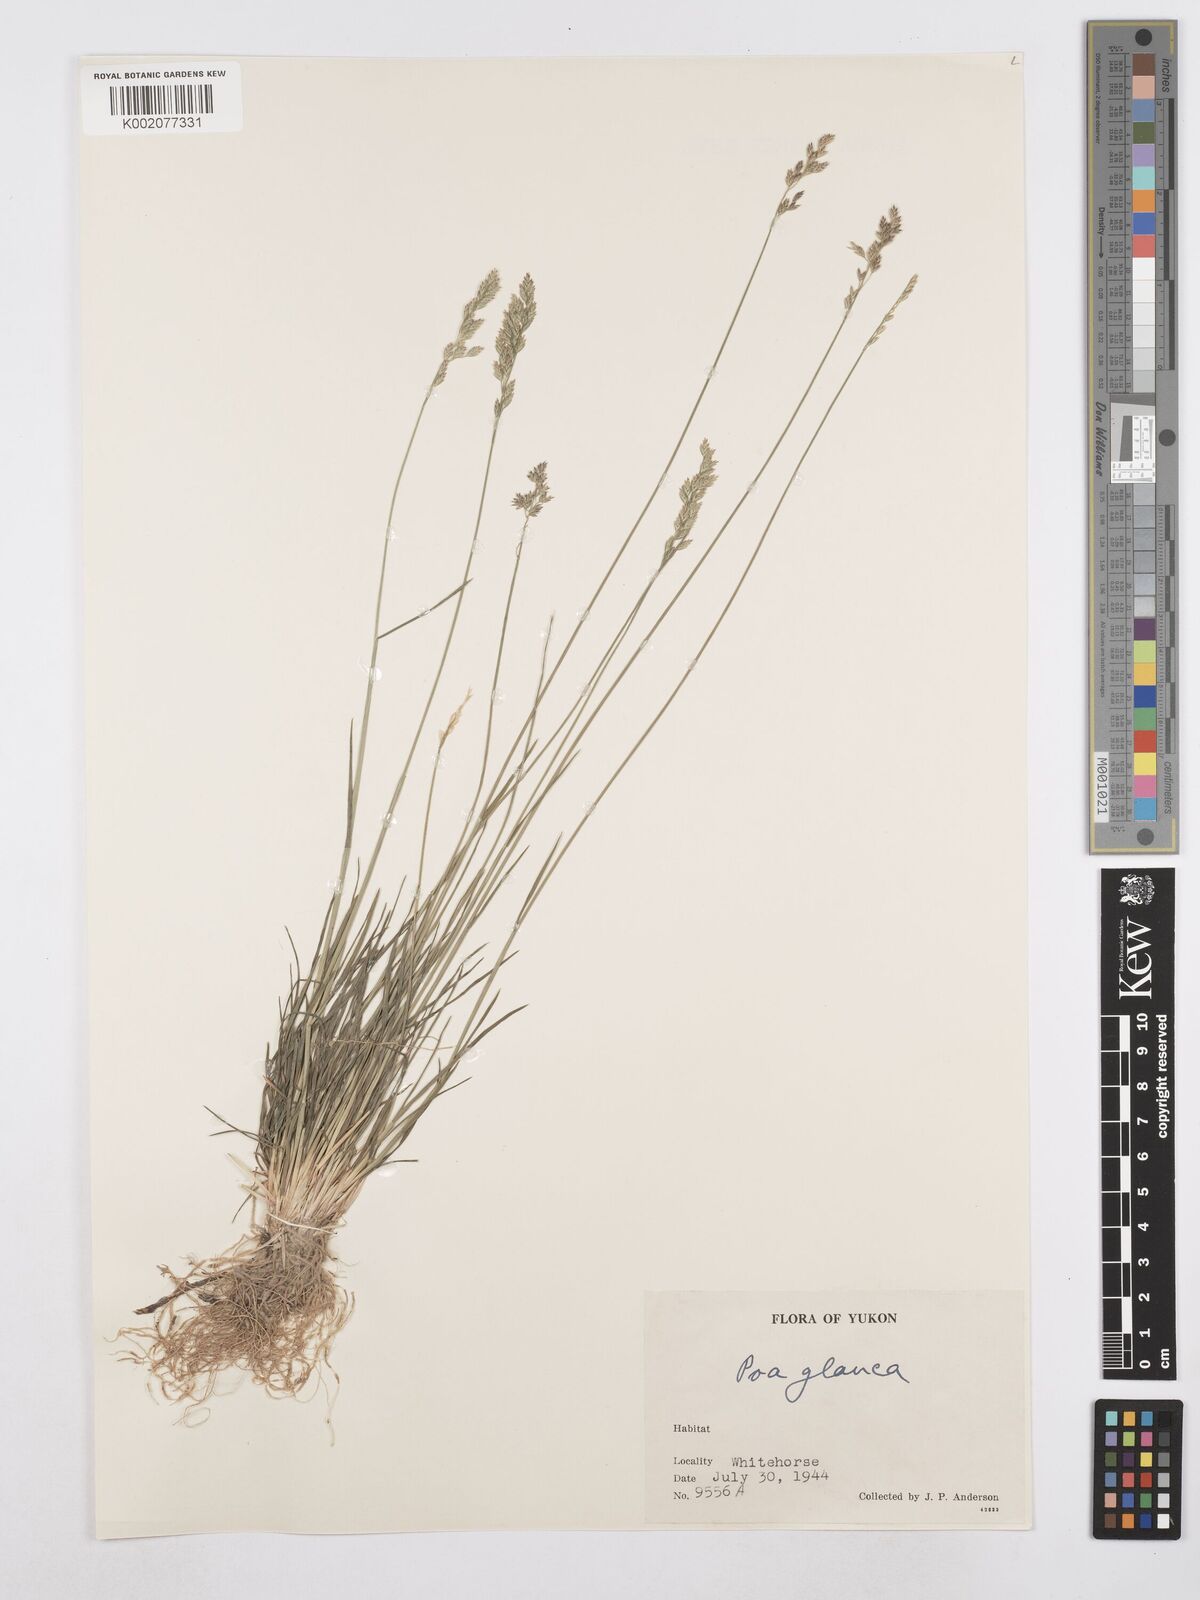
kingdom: Plantae
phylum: Tracheophyta
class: Liliopsida
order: Poales
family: Poaceae
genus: Poa
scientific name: Poa glauca
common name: Glaucous bluegrass
